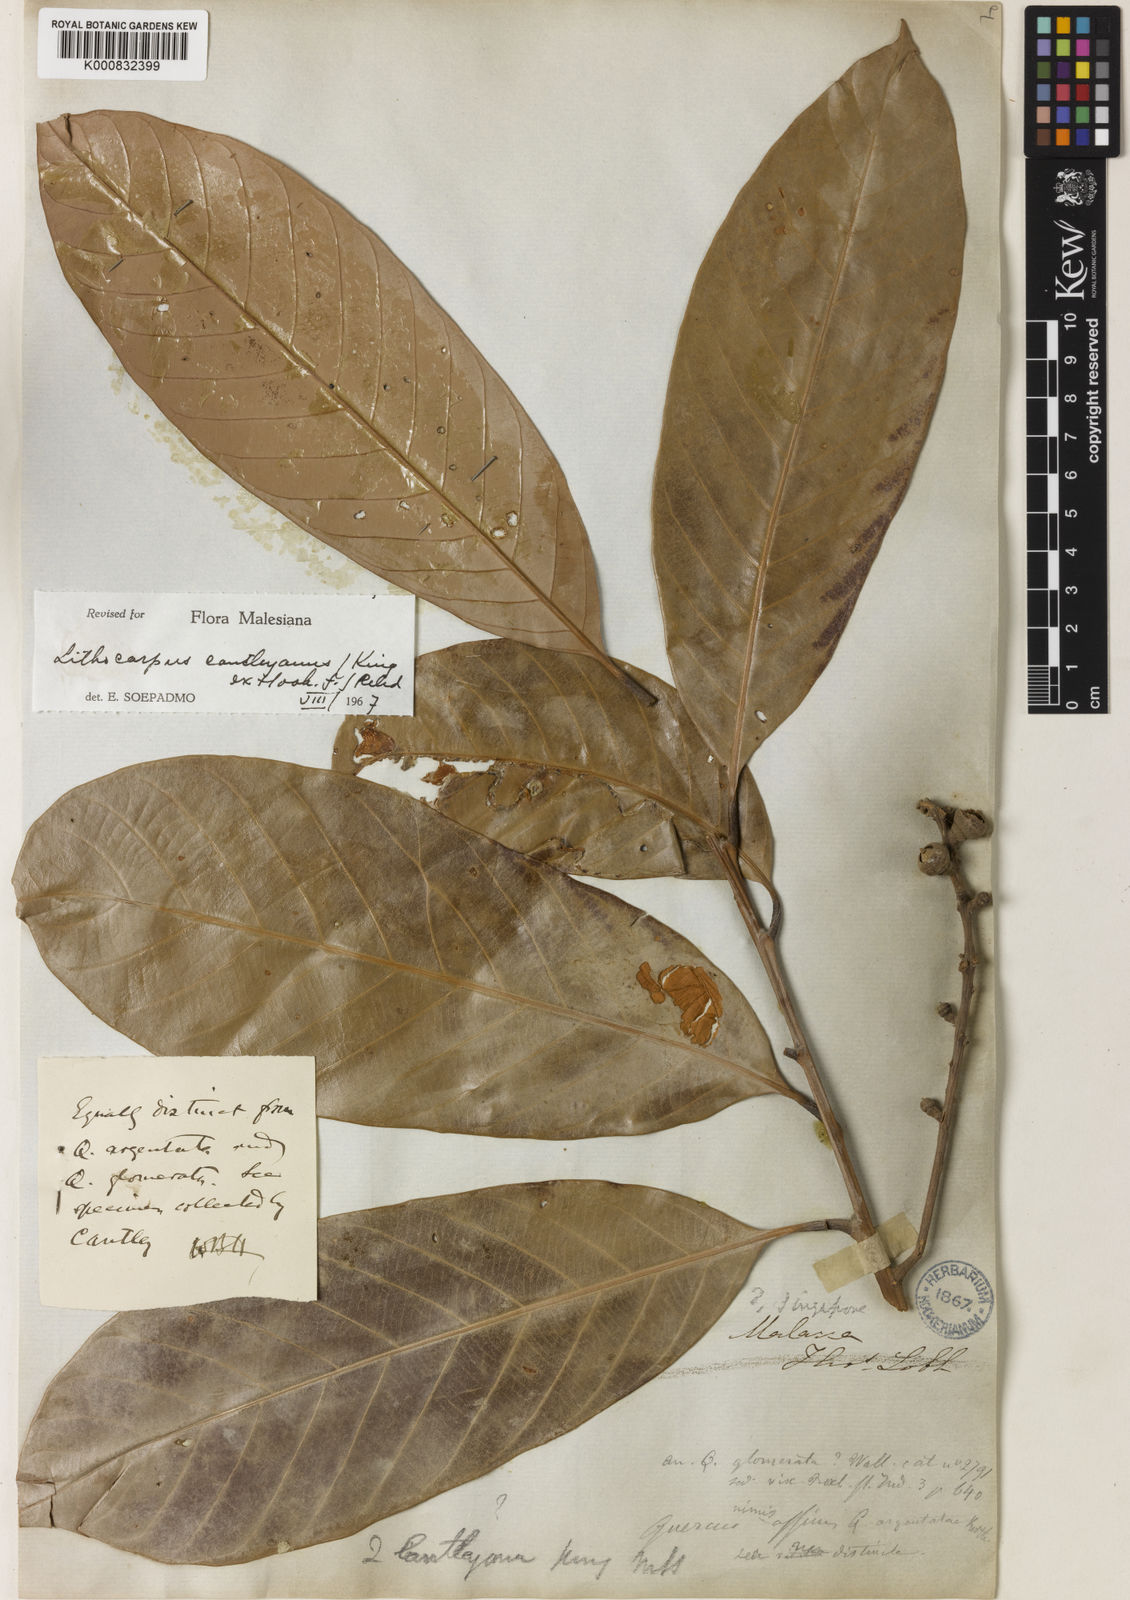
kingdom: Plantae
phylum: Tracheophyta
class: Magnoliopsida
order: Fagales
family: Fagaceae
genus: Lithocarpus
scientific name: Lithocarpus cantleyanus
